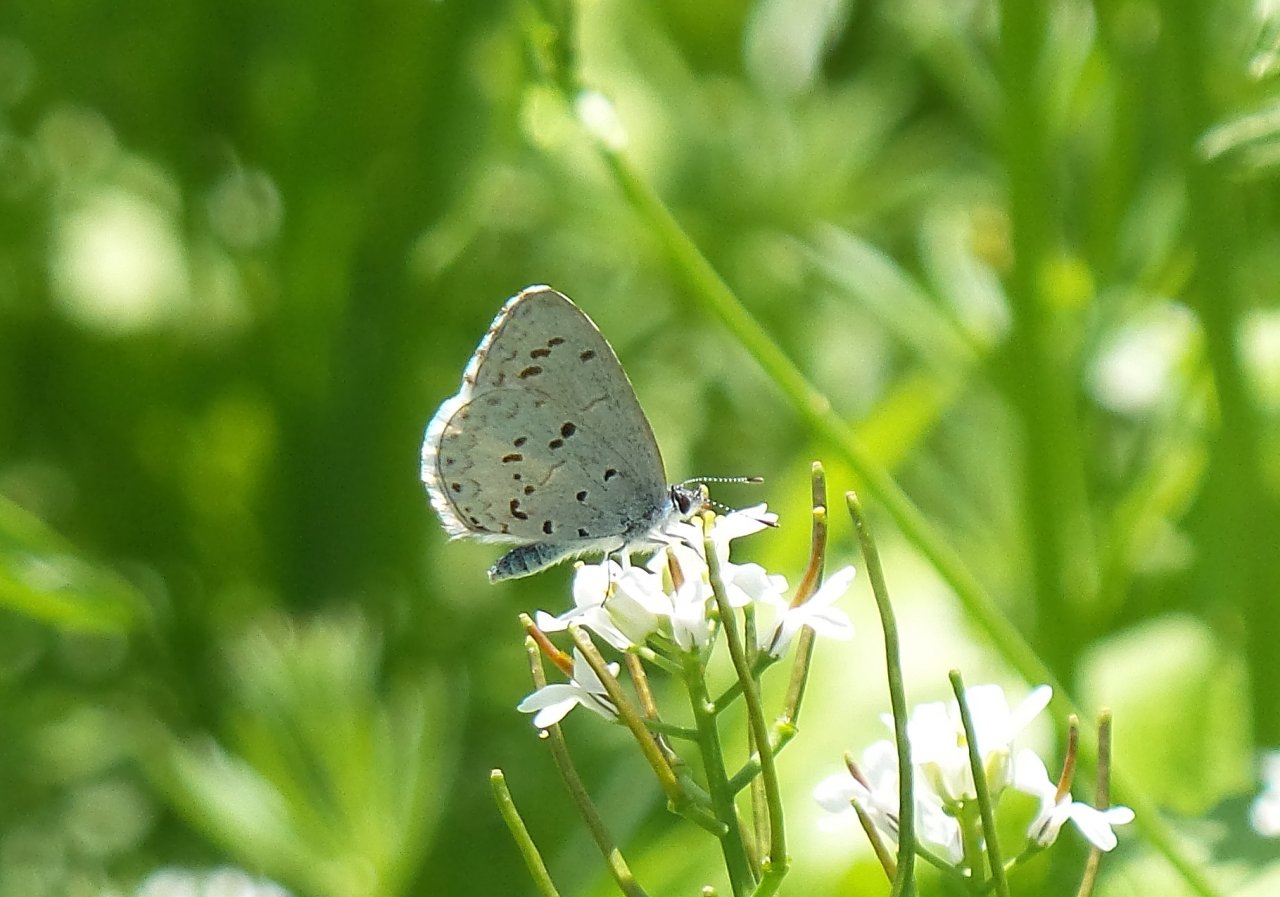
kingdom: Animalia
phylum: Arthropoda
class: Insecta
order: Lepidoptera
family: Lycaenidae
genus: Celastrina
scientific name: Celastrina
